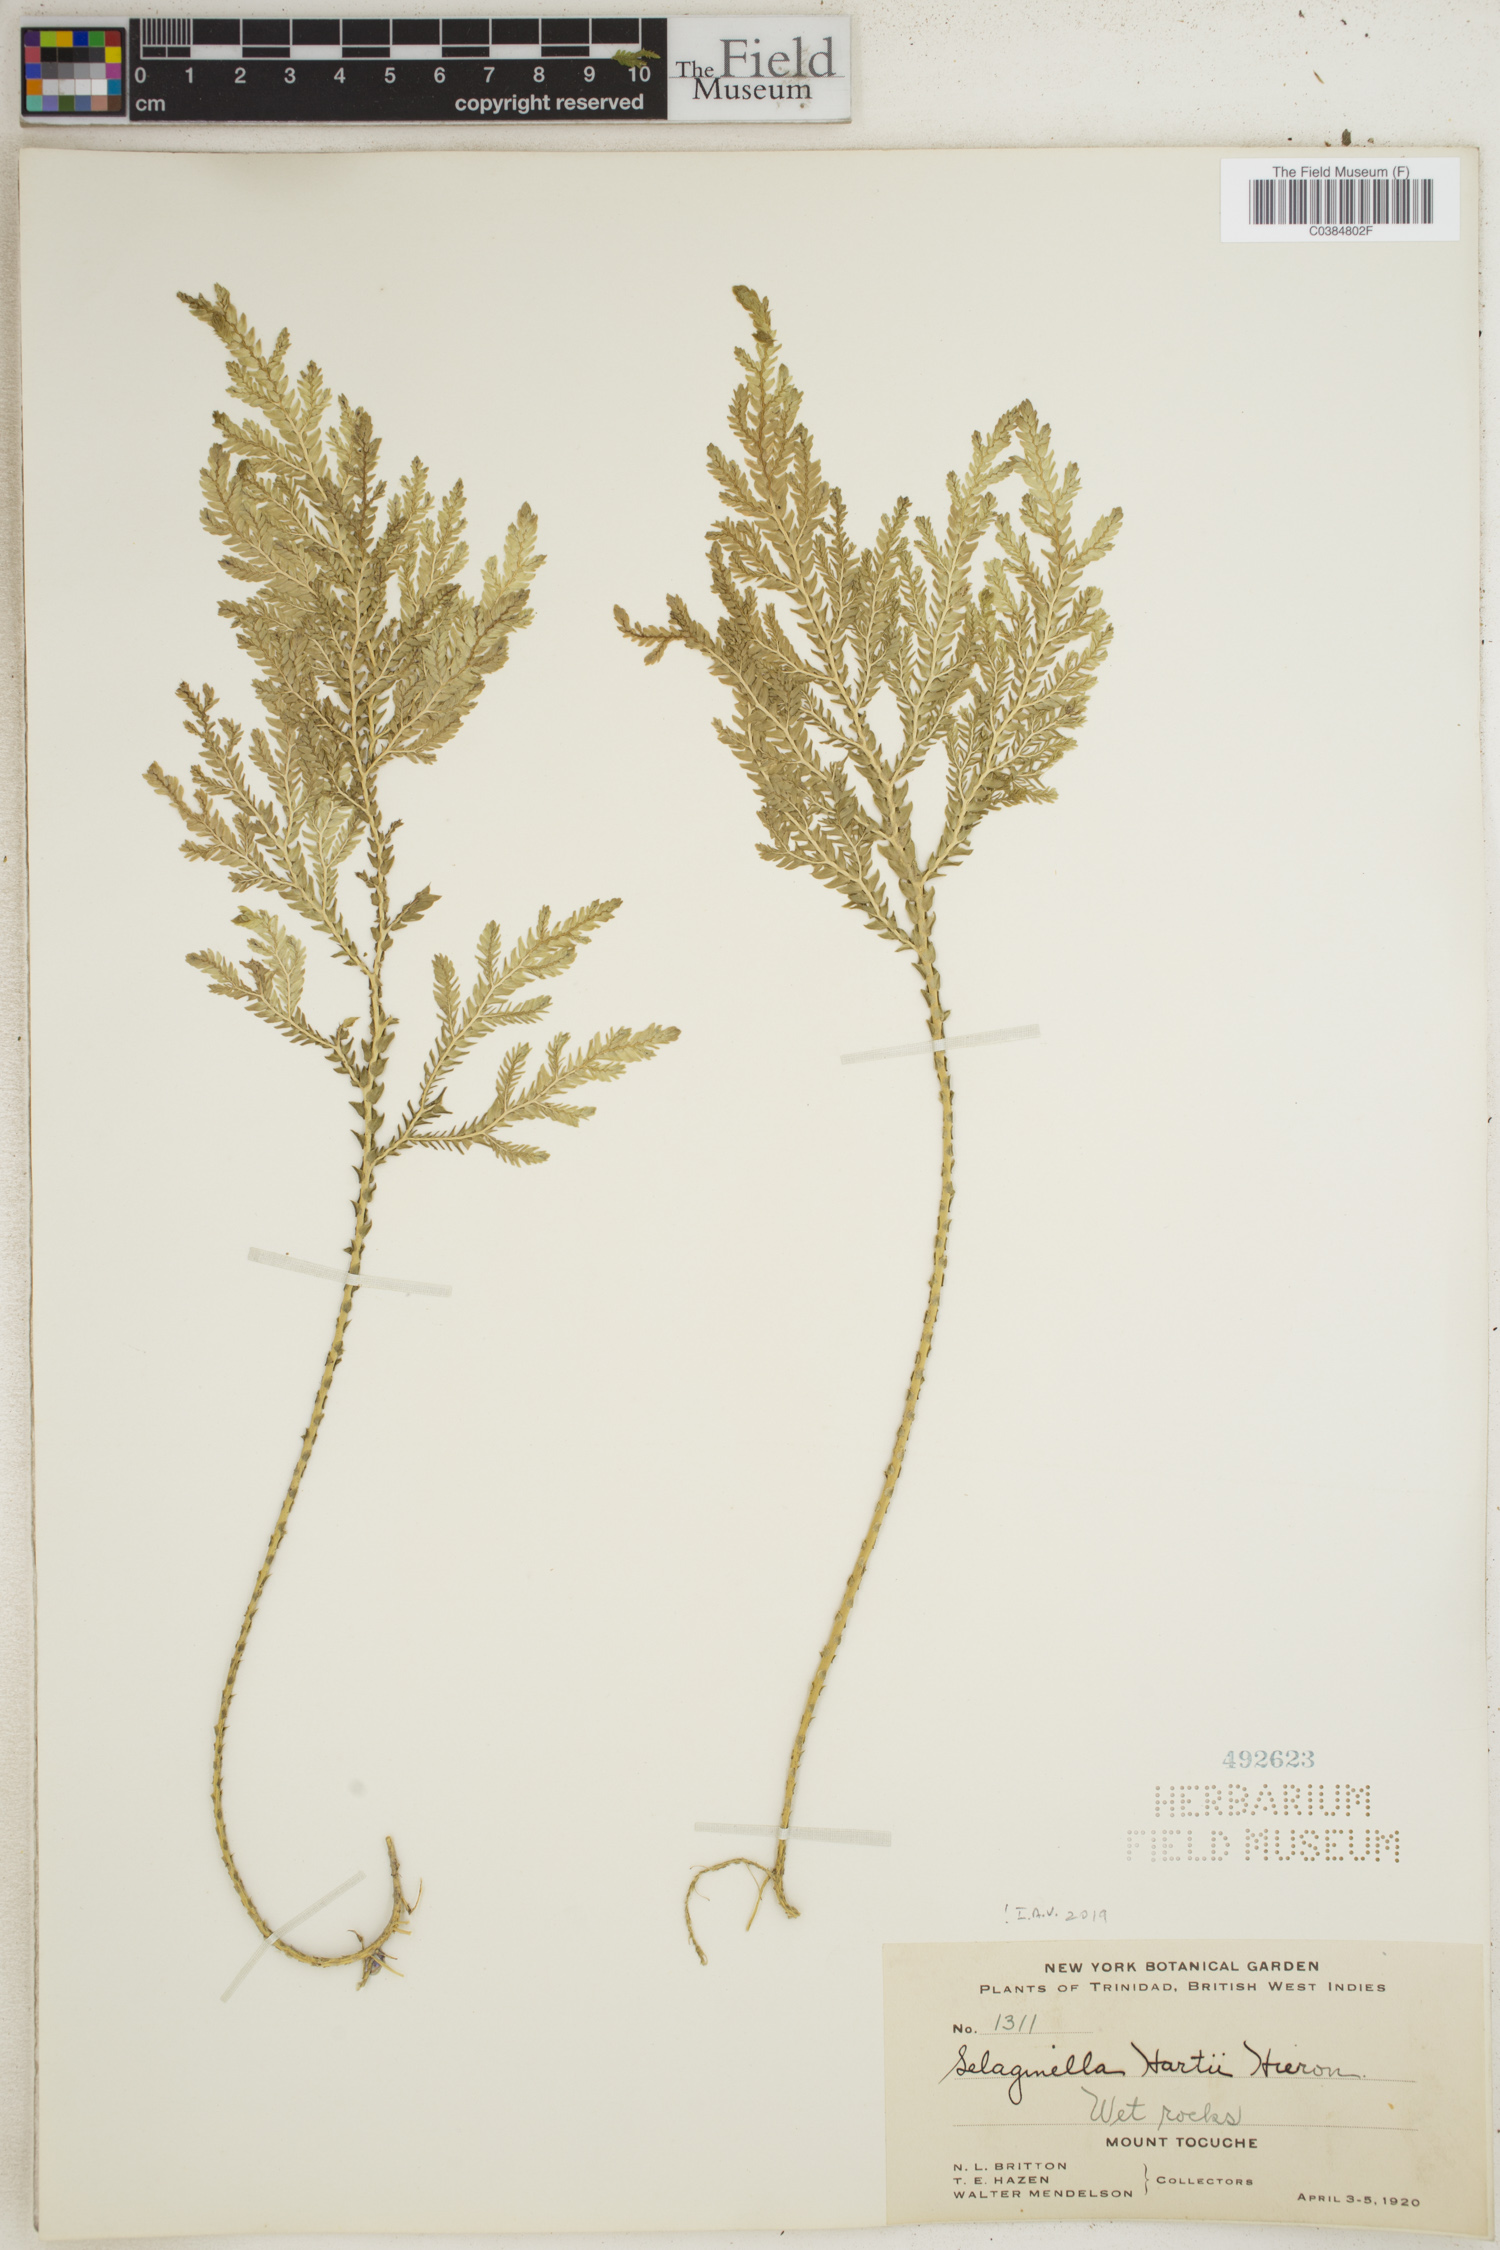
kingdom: Plantae
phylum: Tracheophyta
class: Lycopodiopsida
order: Selaginellales
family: Selaginellaceae
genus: Selaginella
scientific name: Selaginella hartii
